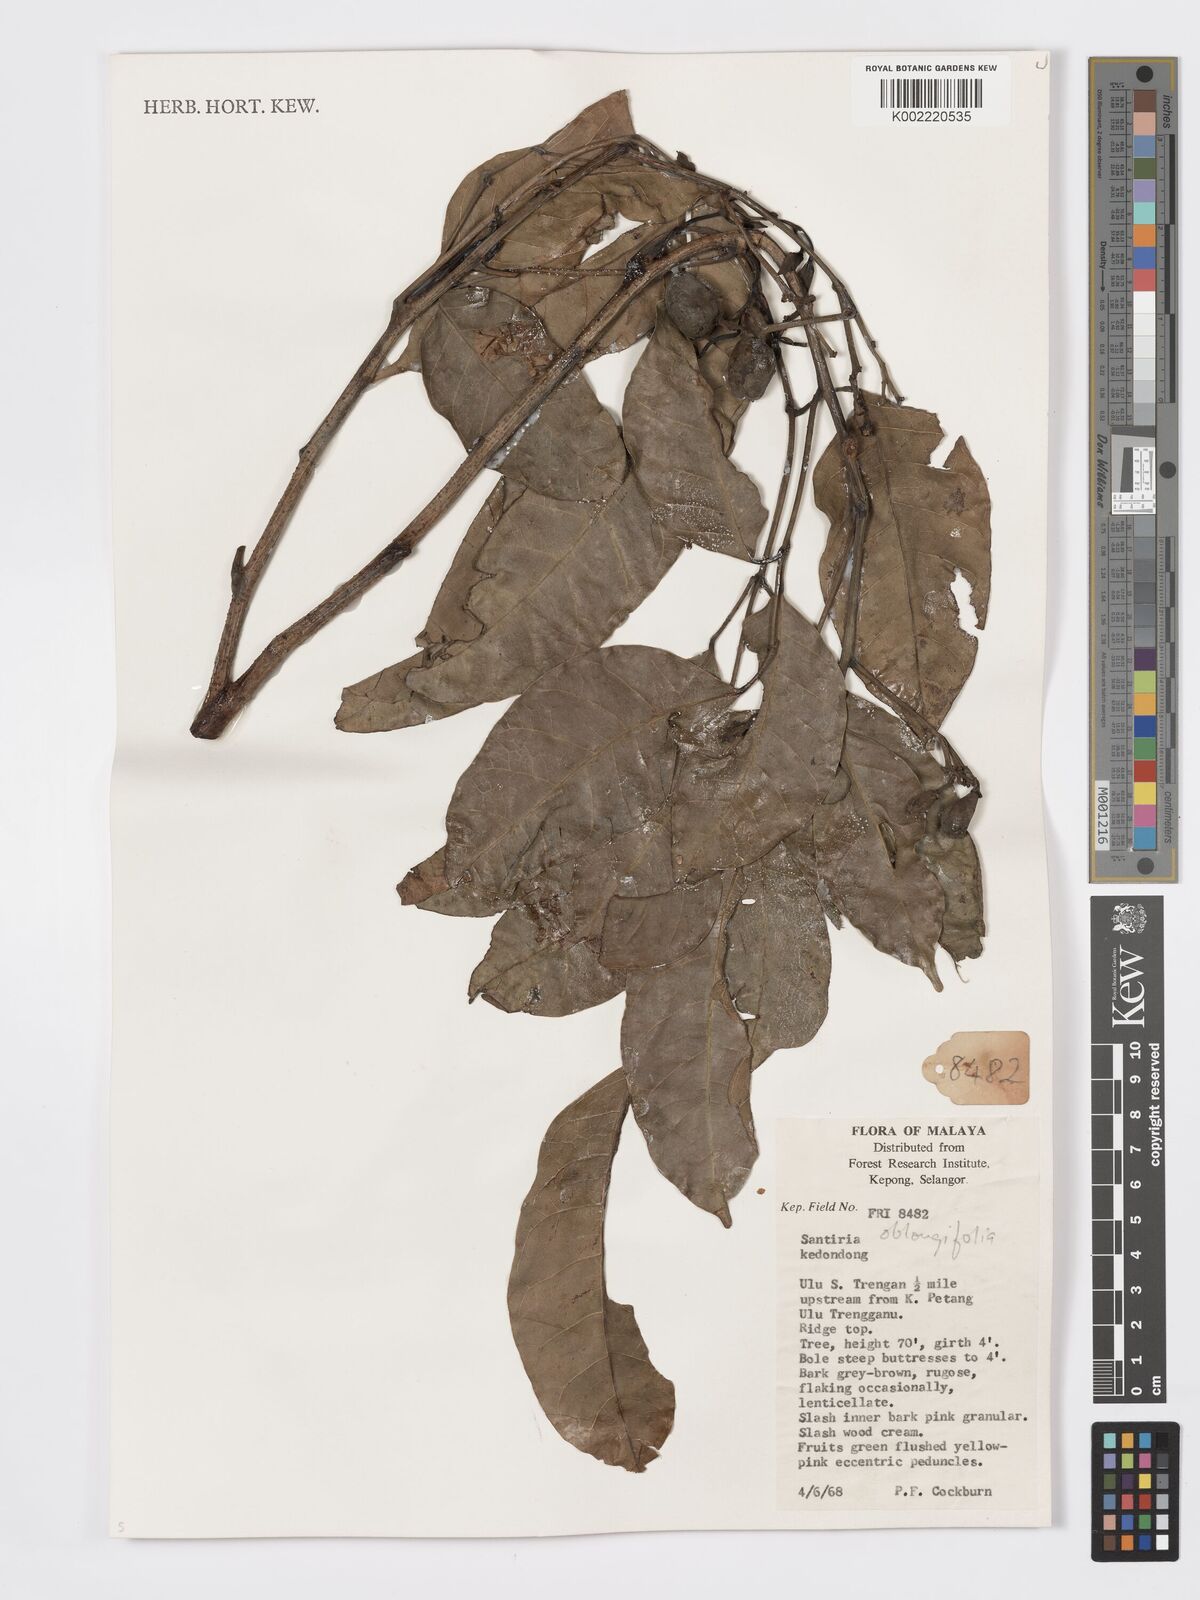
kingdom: Plantae
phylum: Tracheophyta
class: Magnoliopsida
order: Sapindales
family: Burseraceae
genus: Santiria
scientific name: Santiria oblongifolia
